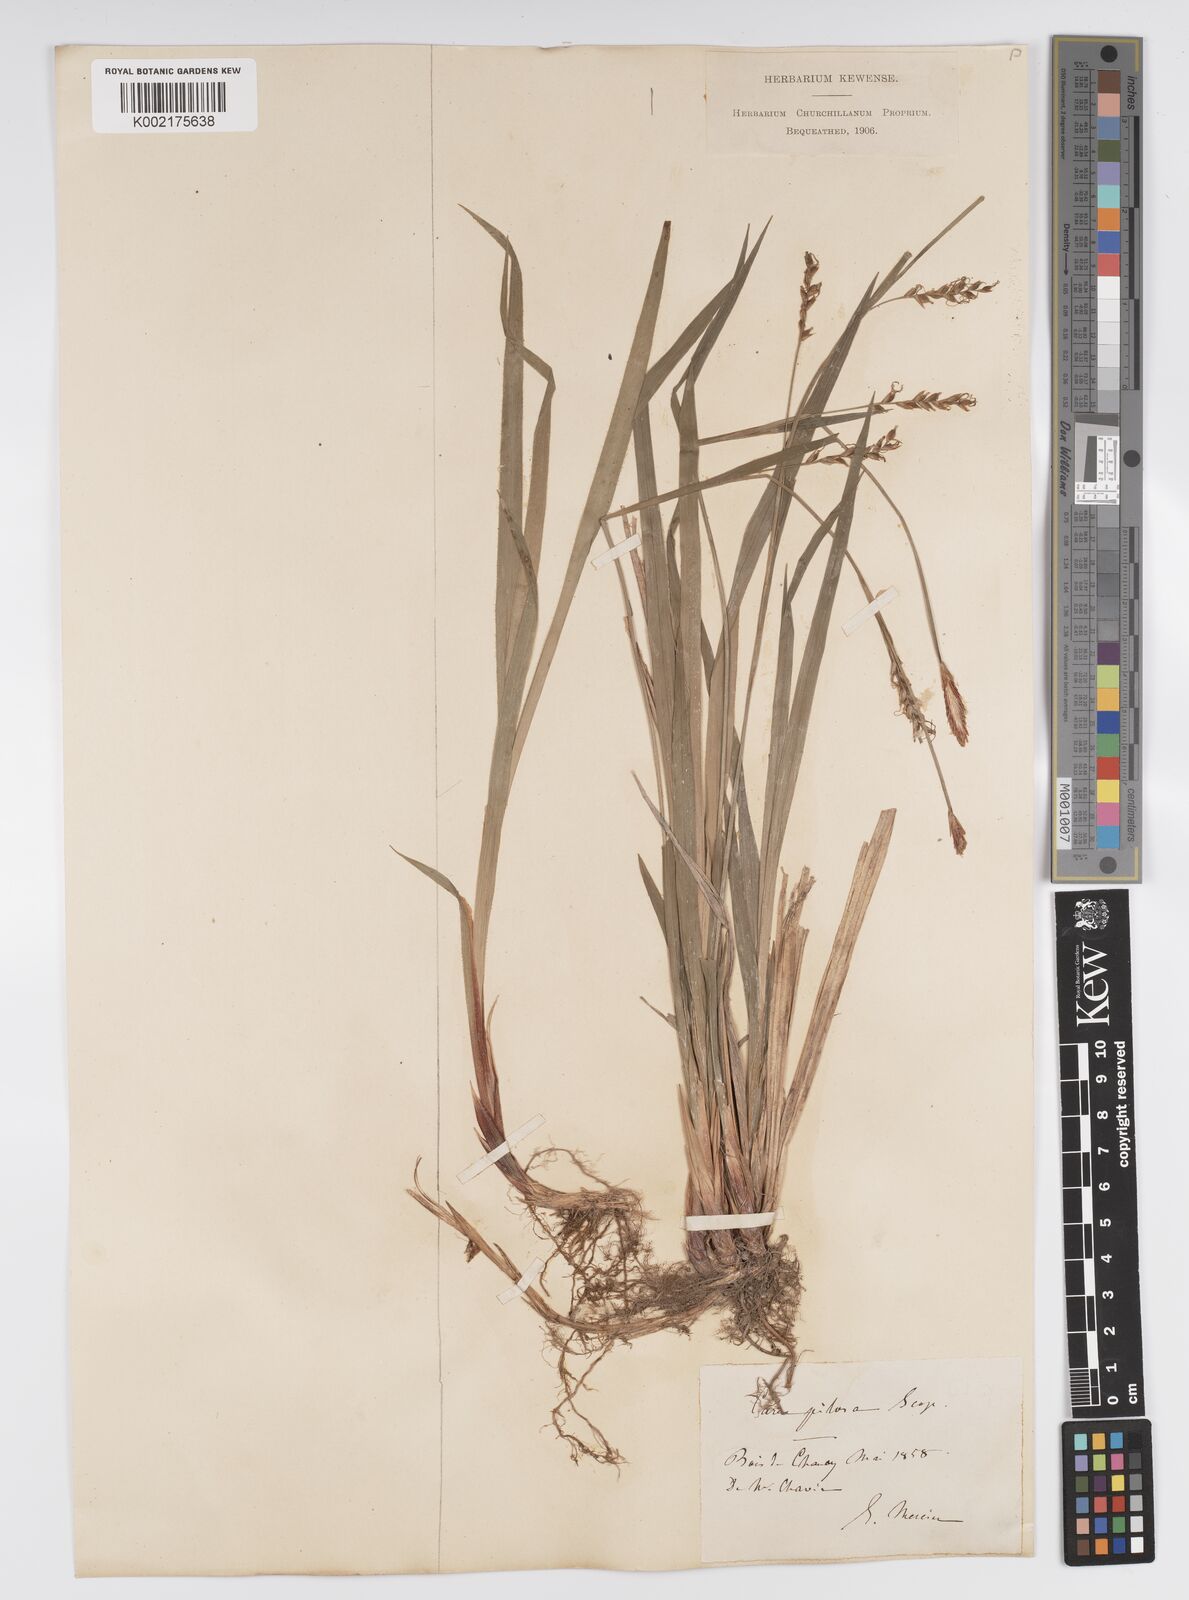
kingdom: Plantae
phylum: Tracheophyta
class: Liliopsida
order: Poales
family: Cyperaceae
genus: Carex
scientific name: Carex pilosa
